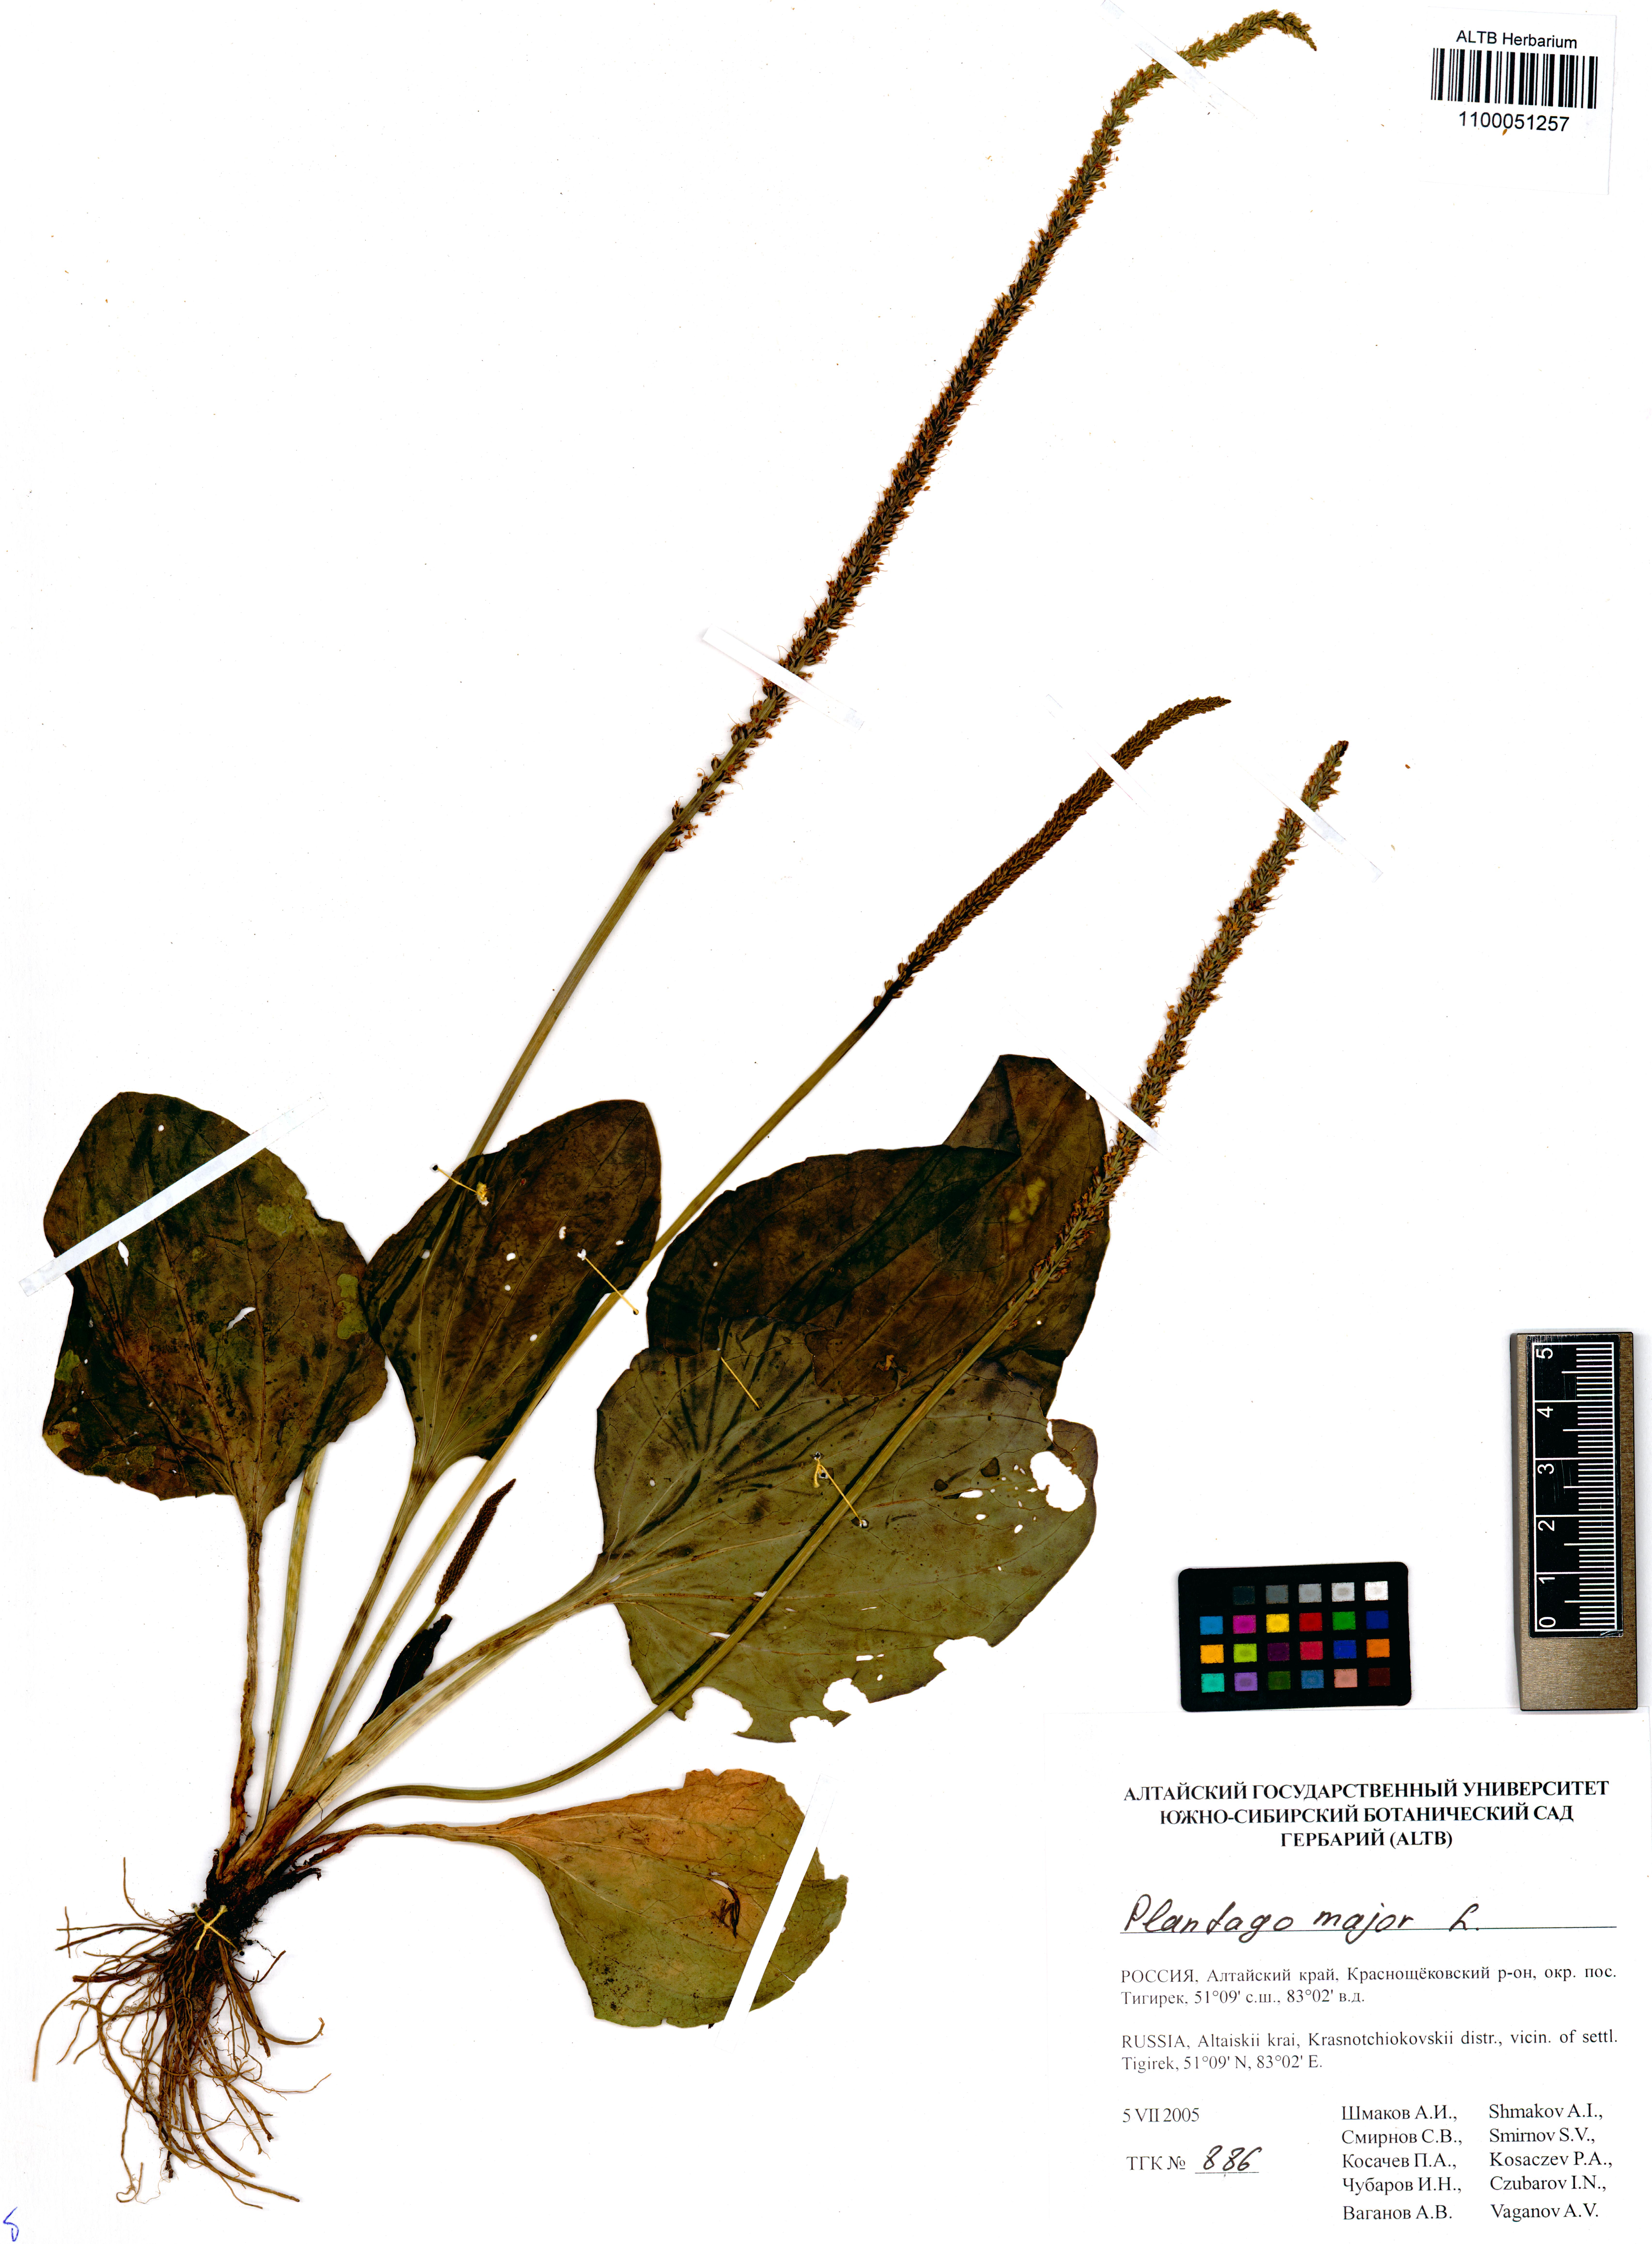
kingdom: Plantae
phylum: Tracheophyta
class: Magnoliopsida
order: Lamiales
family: Plantaginaceae
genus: Plantago
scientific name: Plantago major
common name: Common plantain
